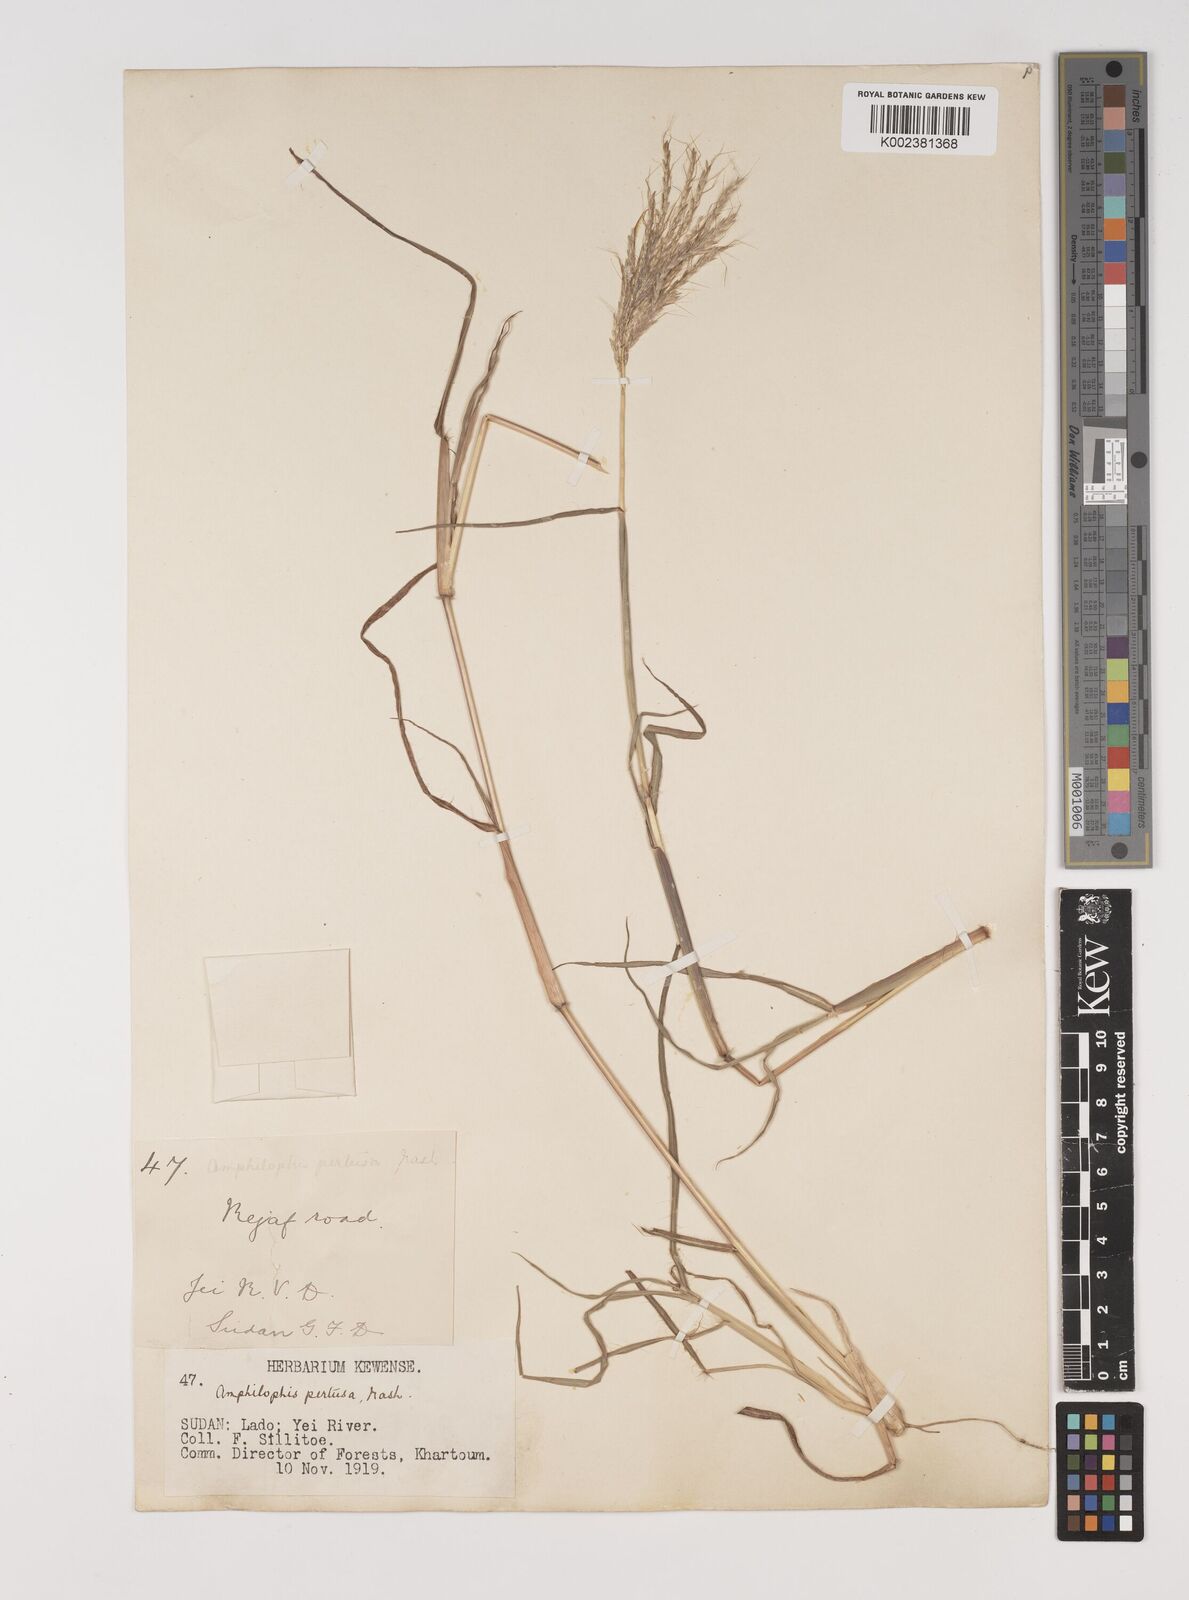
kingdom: Plantae
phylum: Tracheophyta
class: Liliopsida
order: Poales
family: Poaceae
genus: Bothriochloa
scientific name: Bothriochloa insculpta
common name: Creeping-bluegrass
